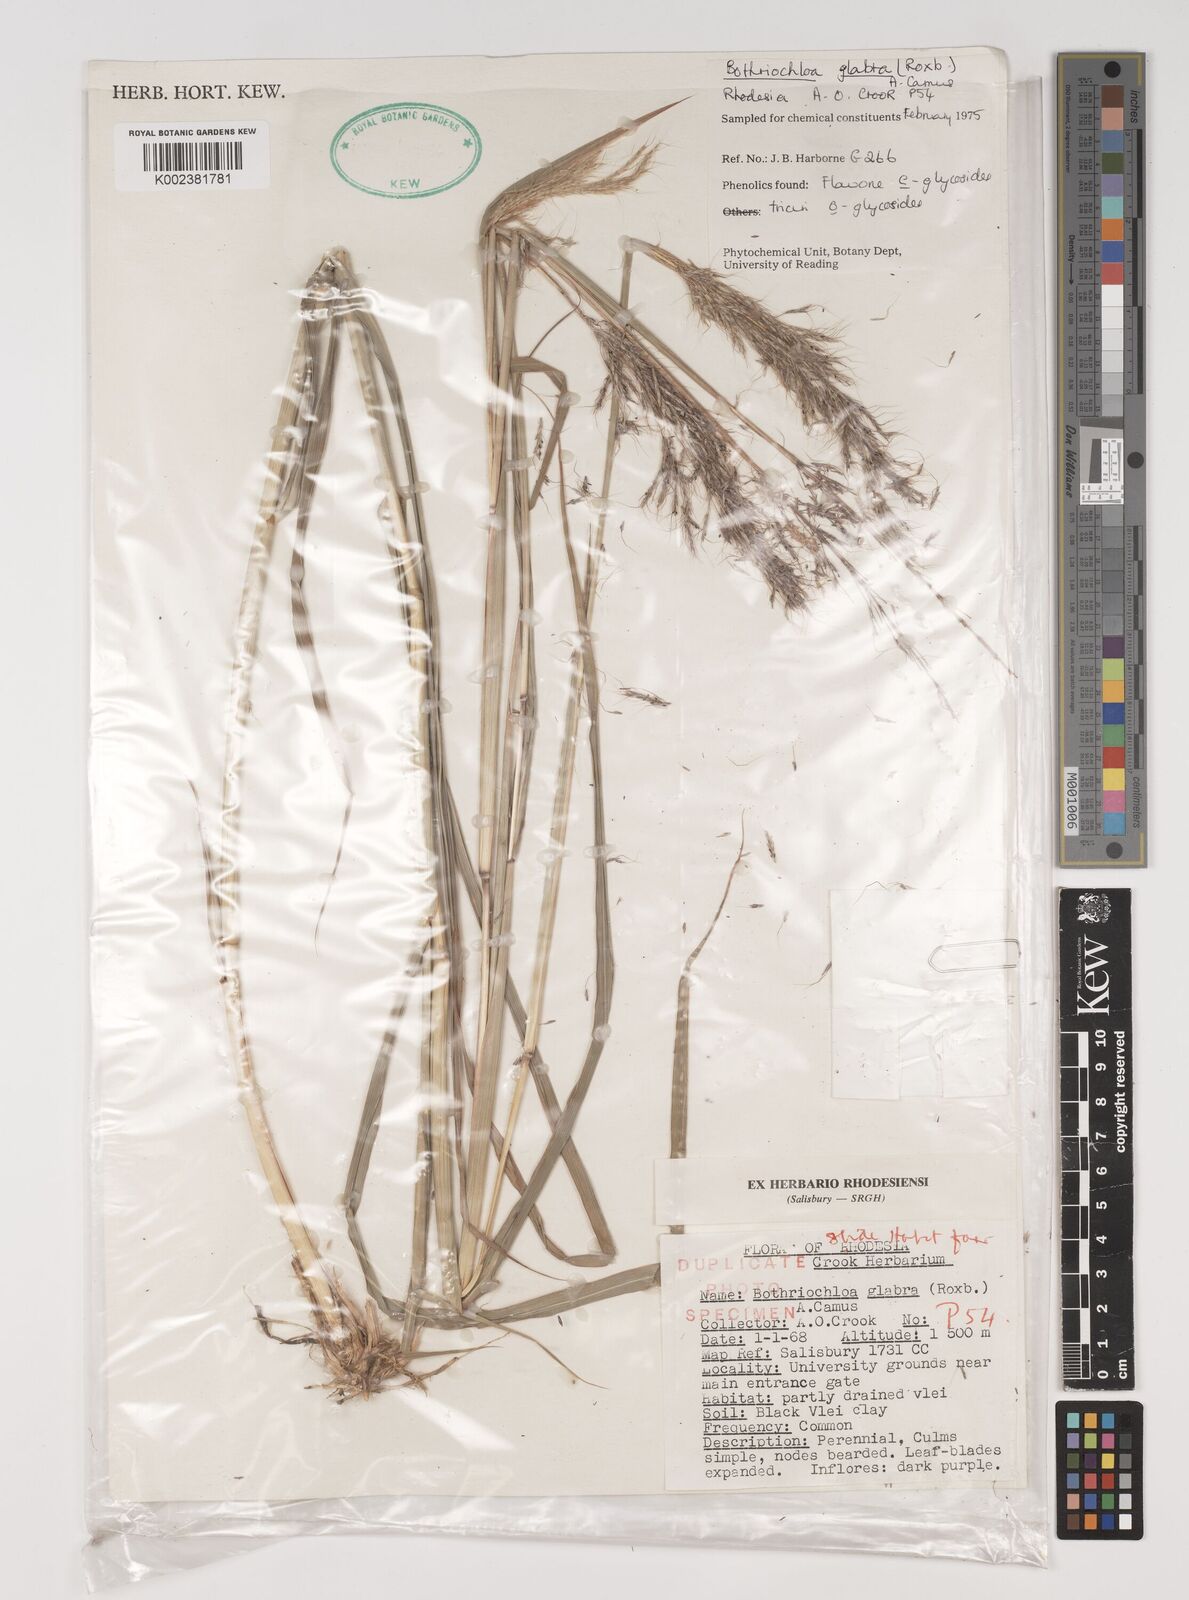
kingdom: Plantae
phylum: Tracheophyta
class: Liliopsida
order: Poales
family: Poaceae
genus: Bothriochloa
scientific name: Bothriochloa bladhii
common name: Caucasian bluestem
